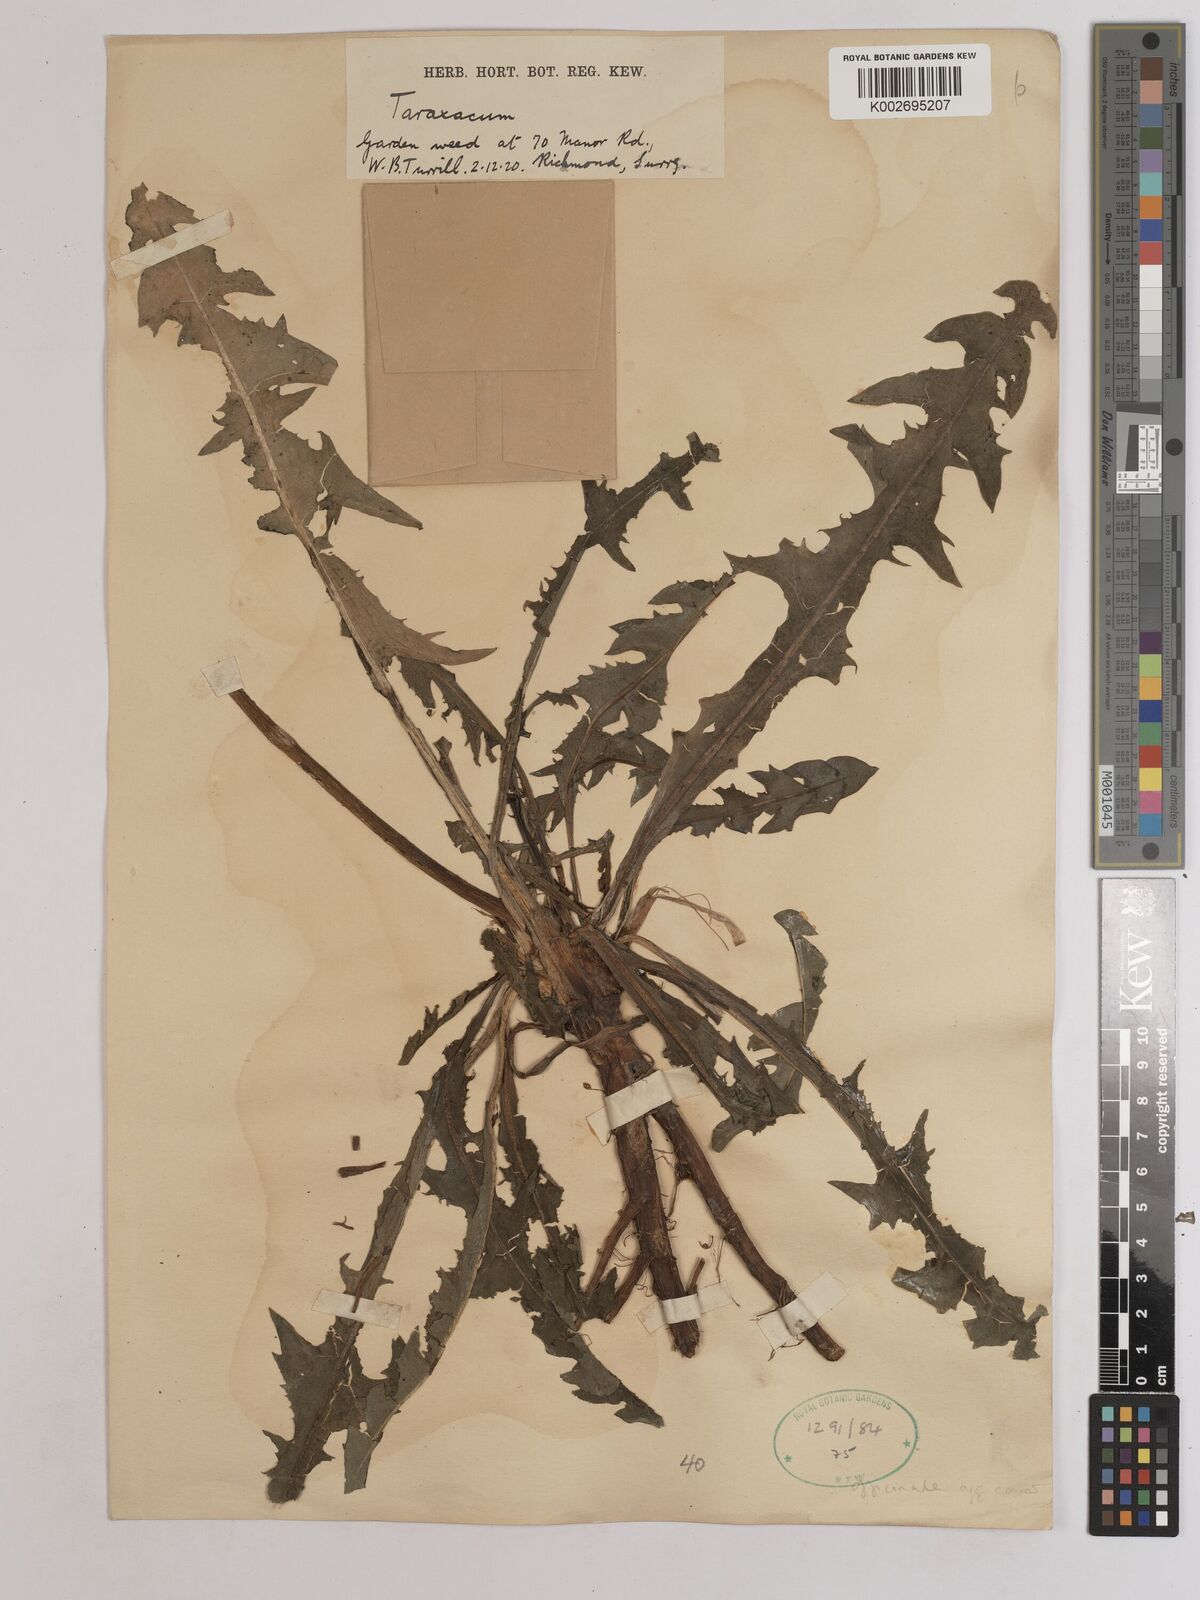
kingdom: Plantae
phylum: Tracheophyta
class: Magnoliopsida
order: Asterales
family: Asteraceae
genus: Taraxacum
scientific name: Taraxacum officinale
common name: Common dandelion
